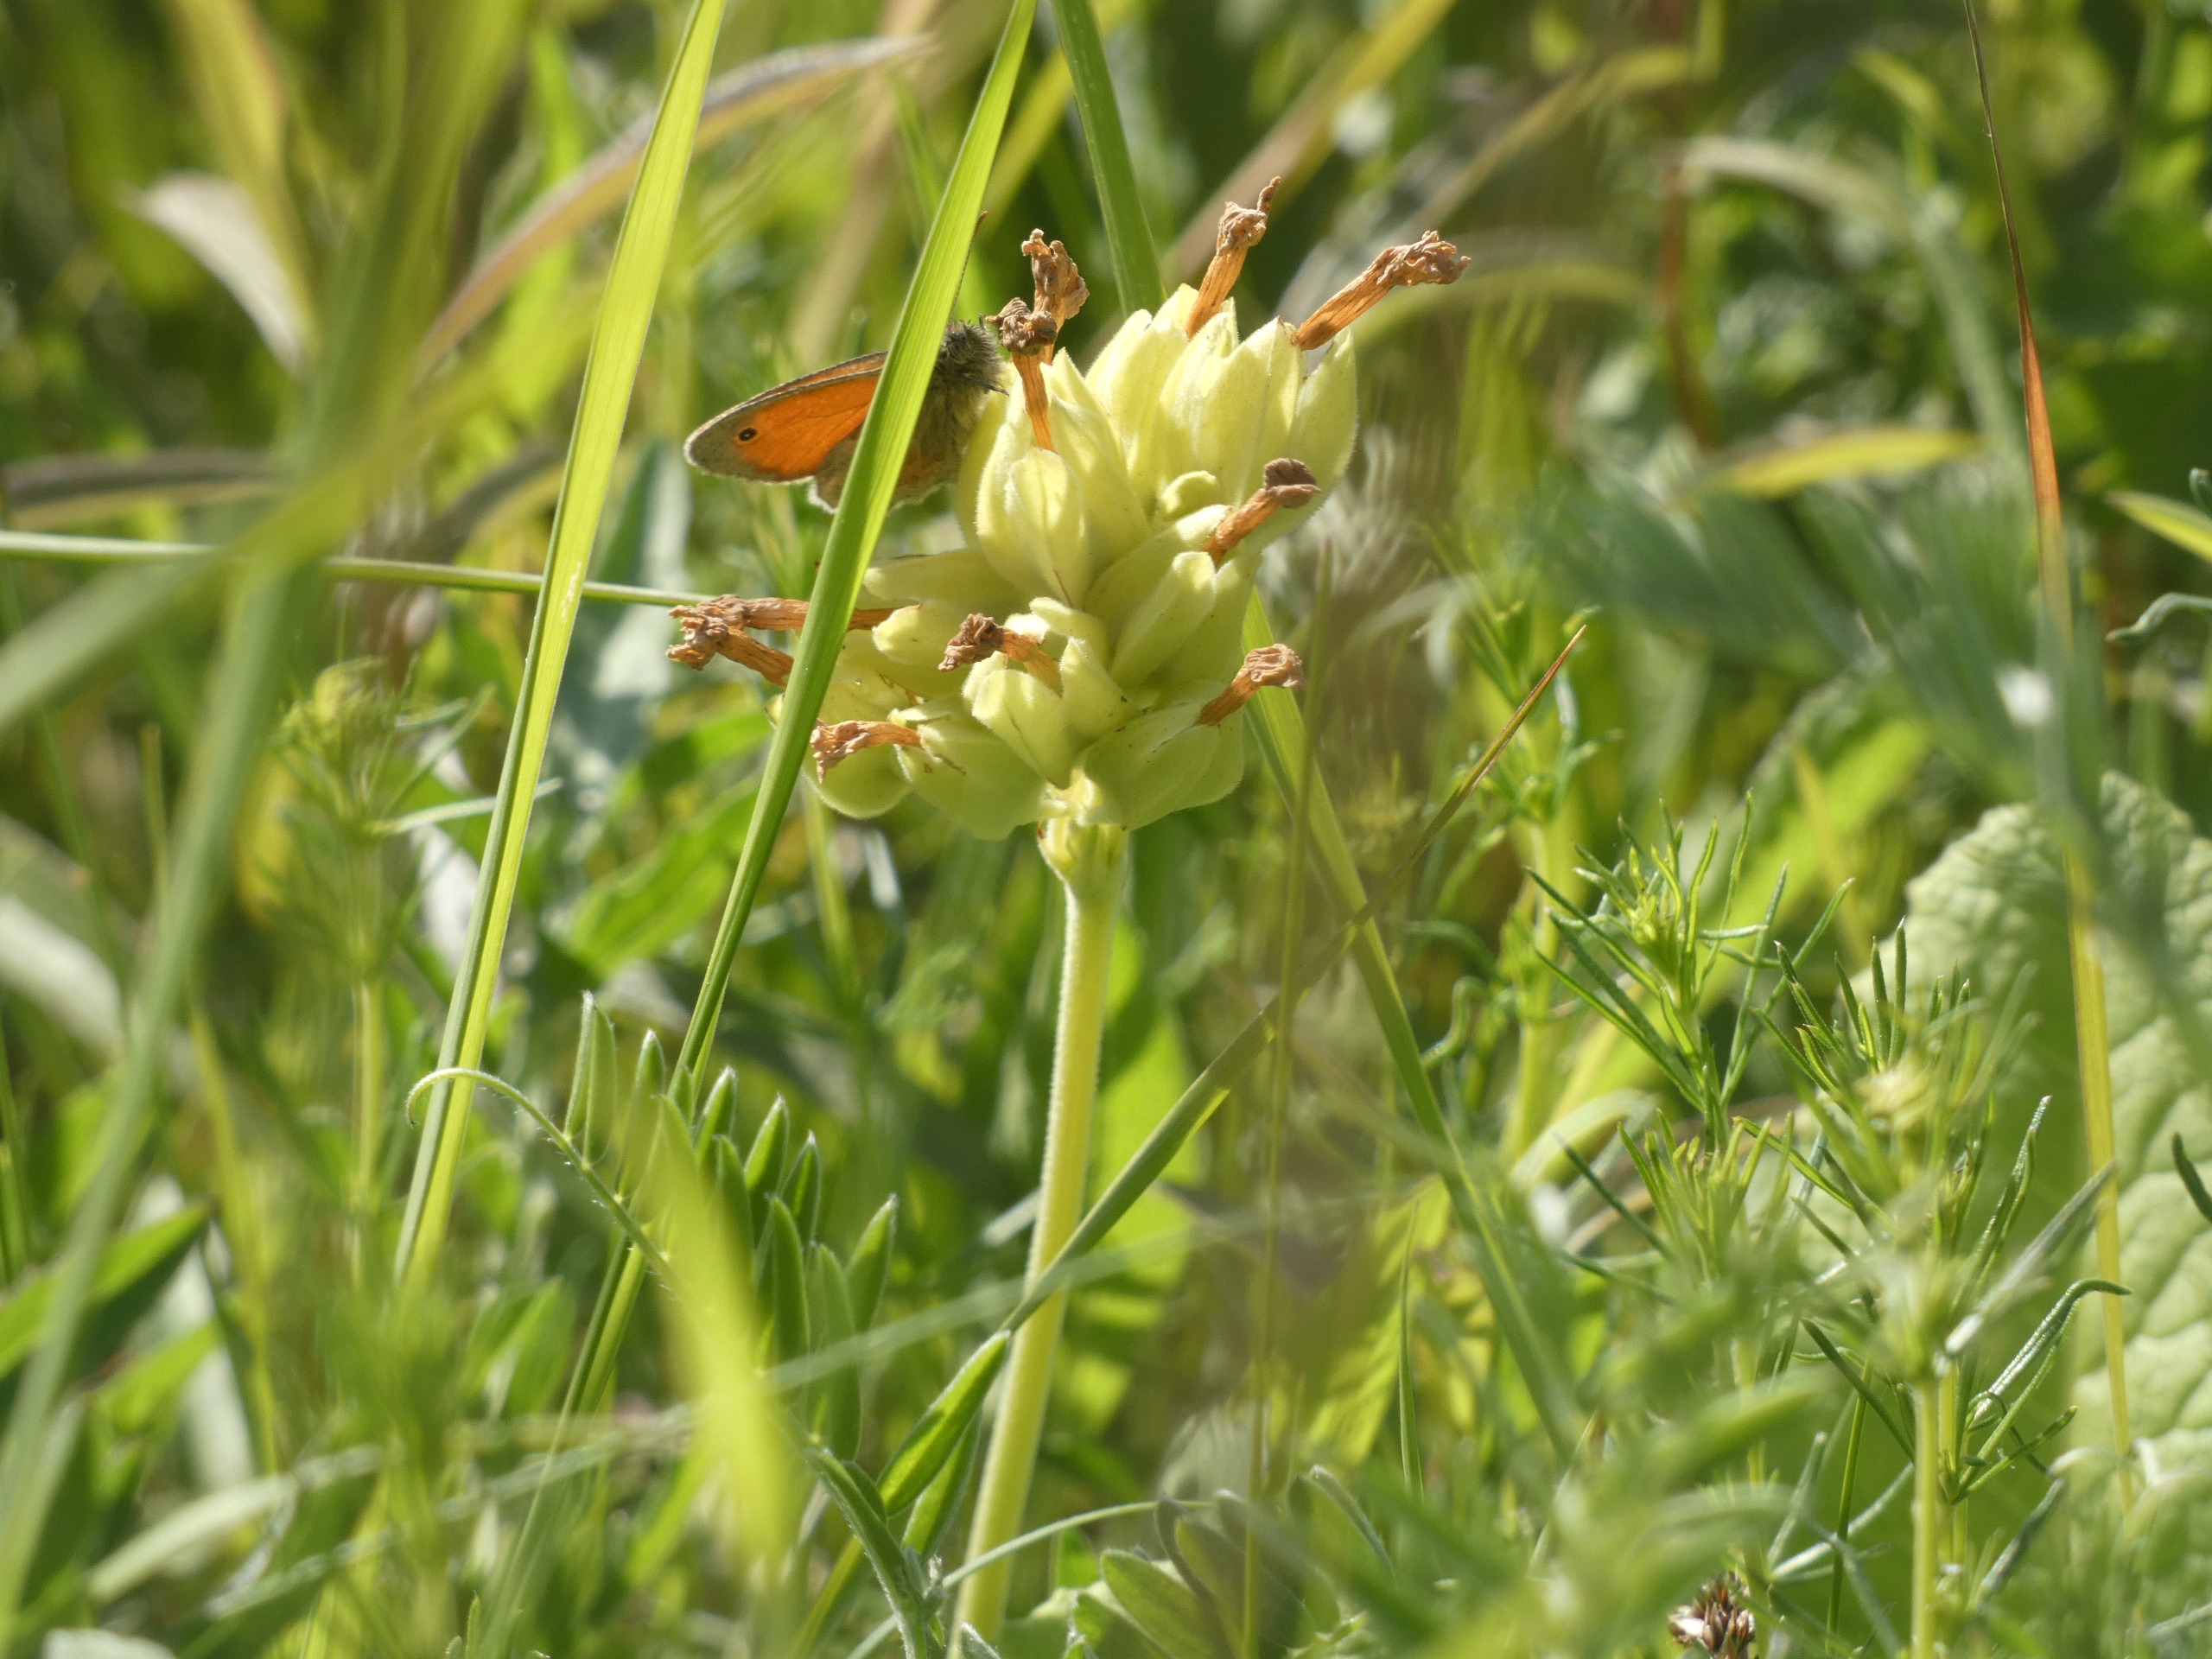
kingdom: Animalia
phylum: Arthropoda
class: Insecta
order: Lepidoptera
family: Nymphalidae
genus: Coenonympha
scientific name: Coenonympha pamphilus
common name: Okkergul randøje
